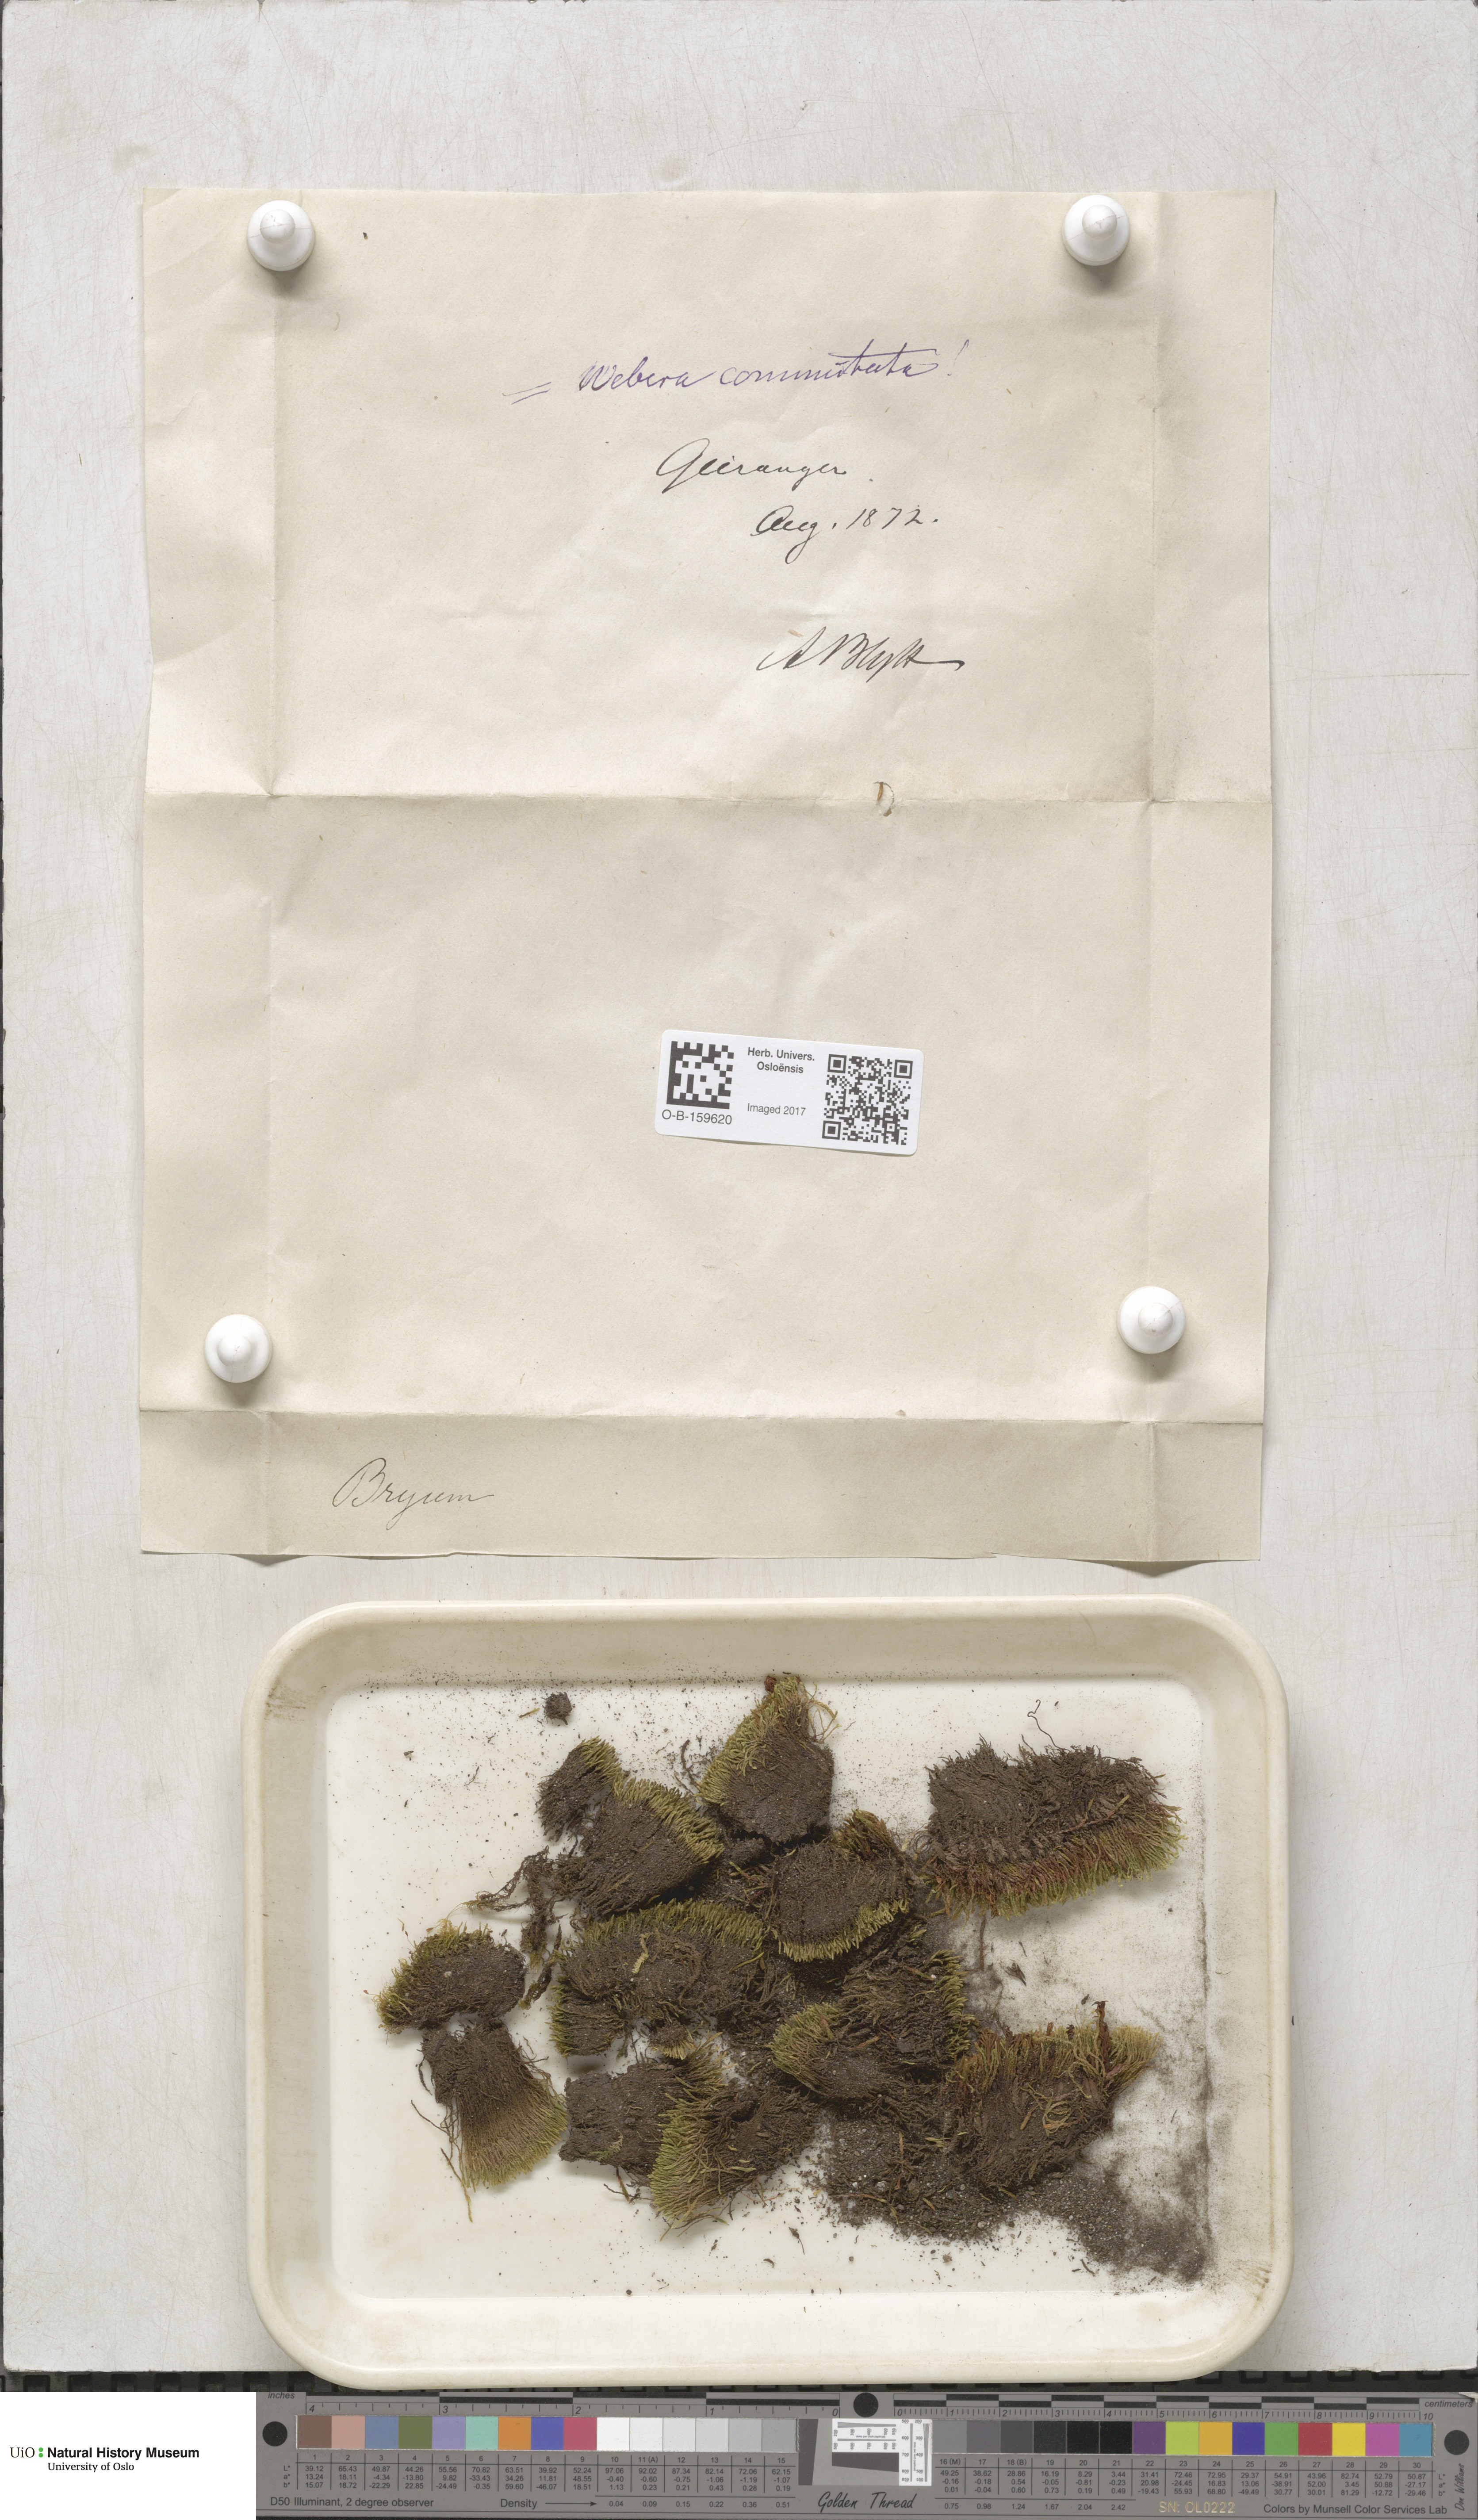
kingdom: Plantae
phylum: Bryophyta
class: Bryopsida
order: Bryales
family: Mniaceae
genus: Pohlia
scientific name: Pohlia drummondii
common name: Drummond's nodding moss
